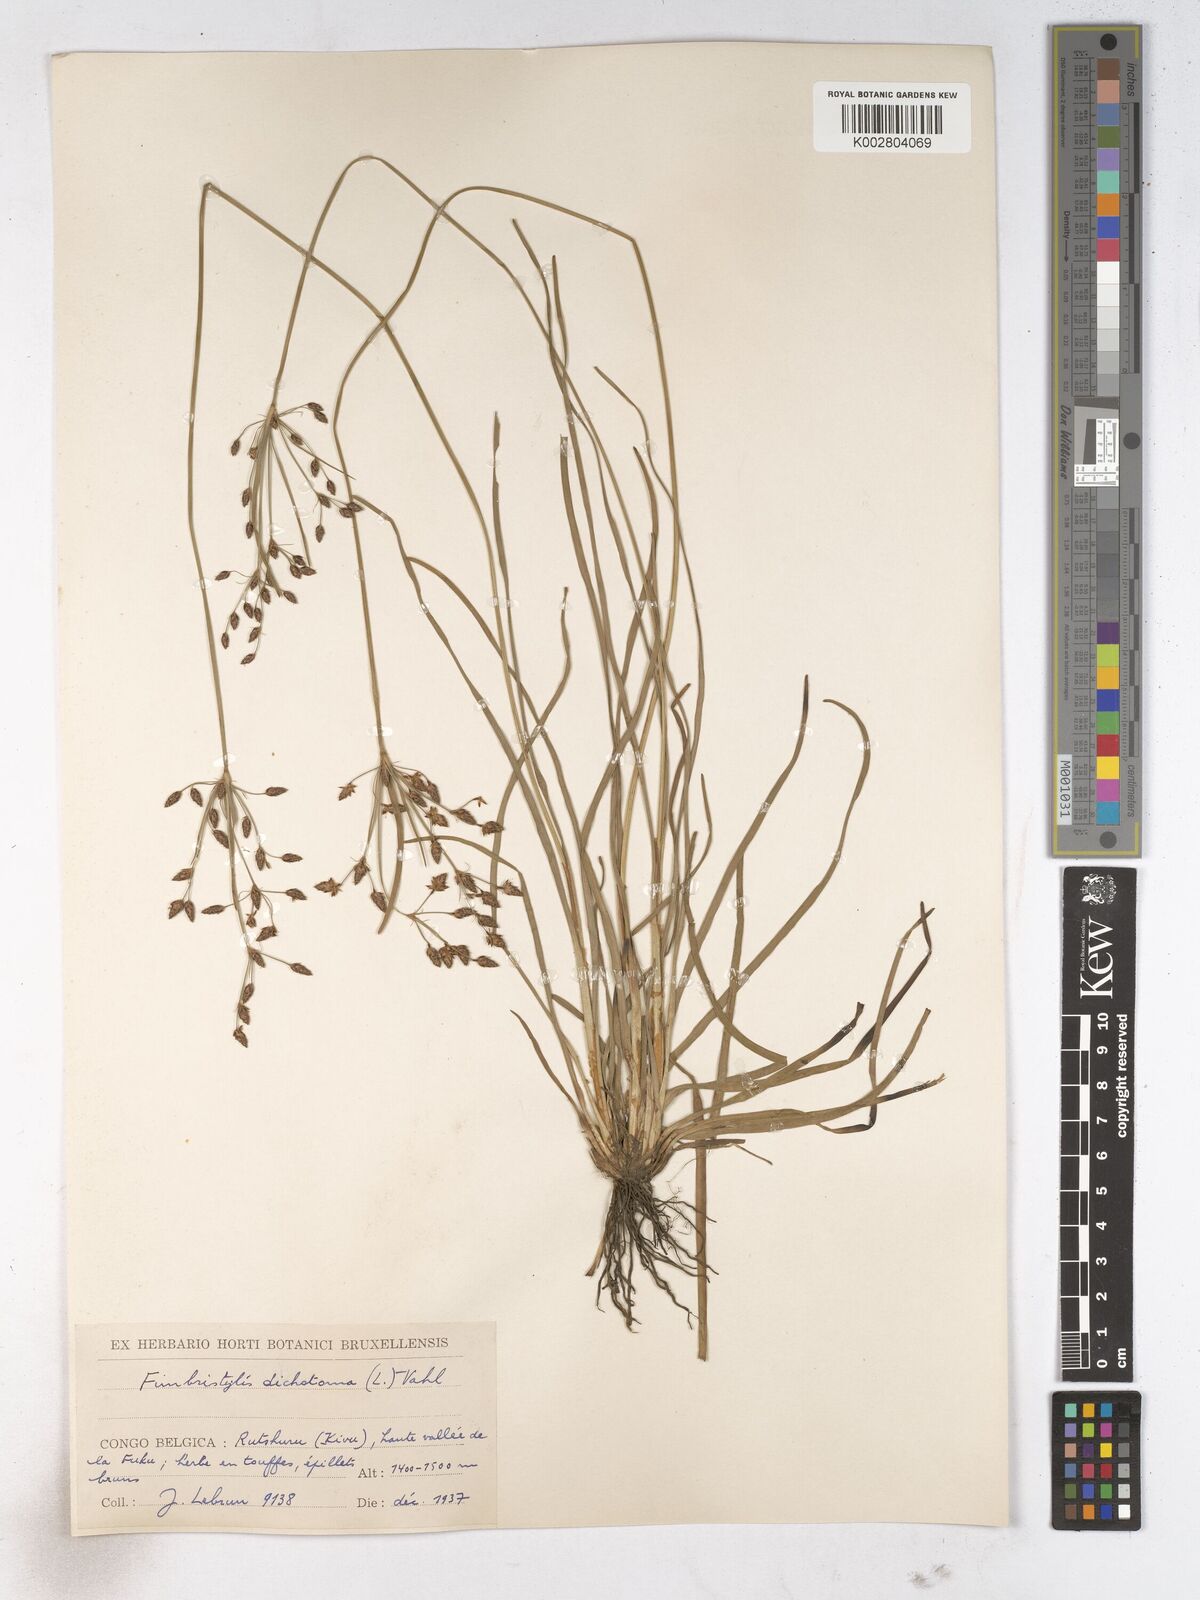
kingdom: Plantae
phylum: Tracheophyta
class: Liliopsida
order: Poales
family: Cyperaceae
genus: Fimbristylis
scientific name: Fimbristylis dichotoma
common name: Forked fimbry
